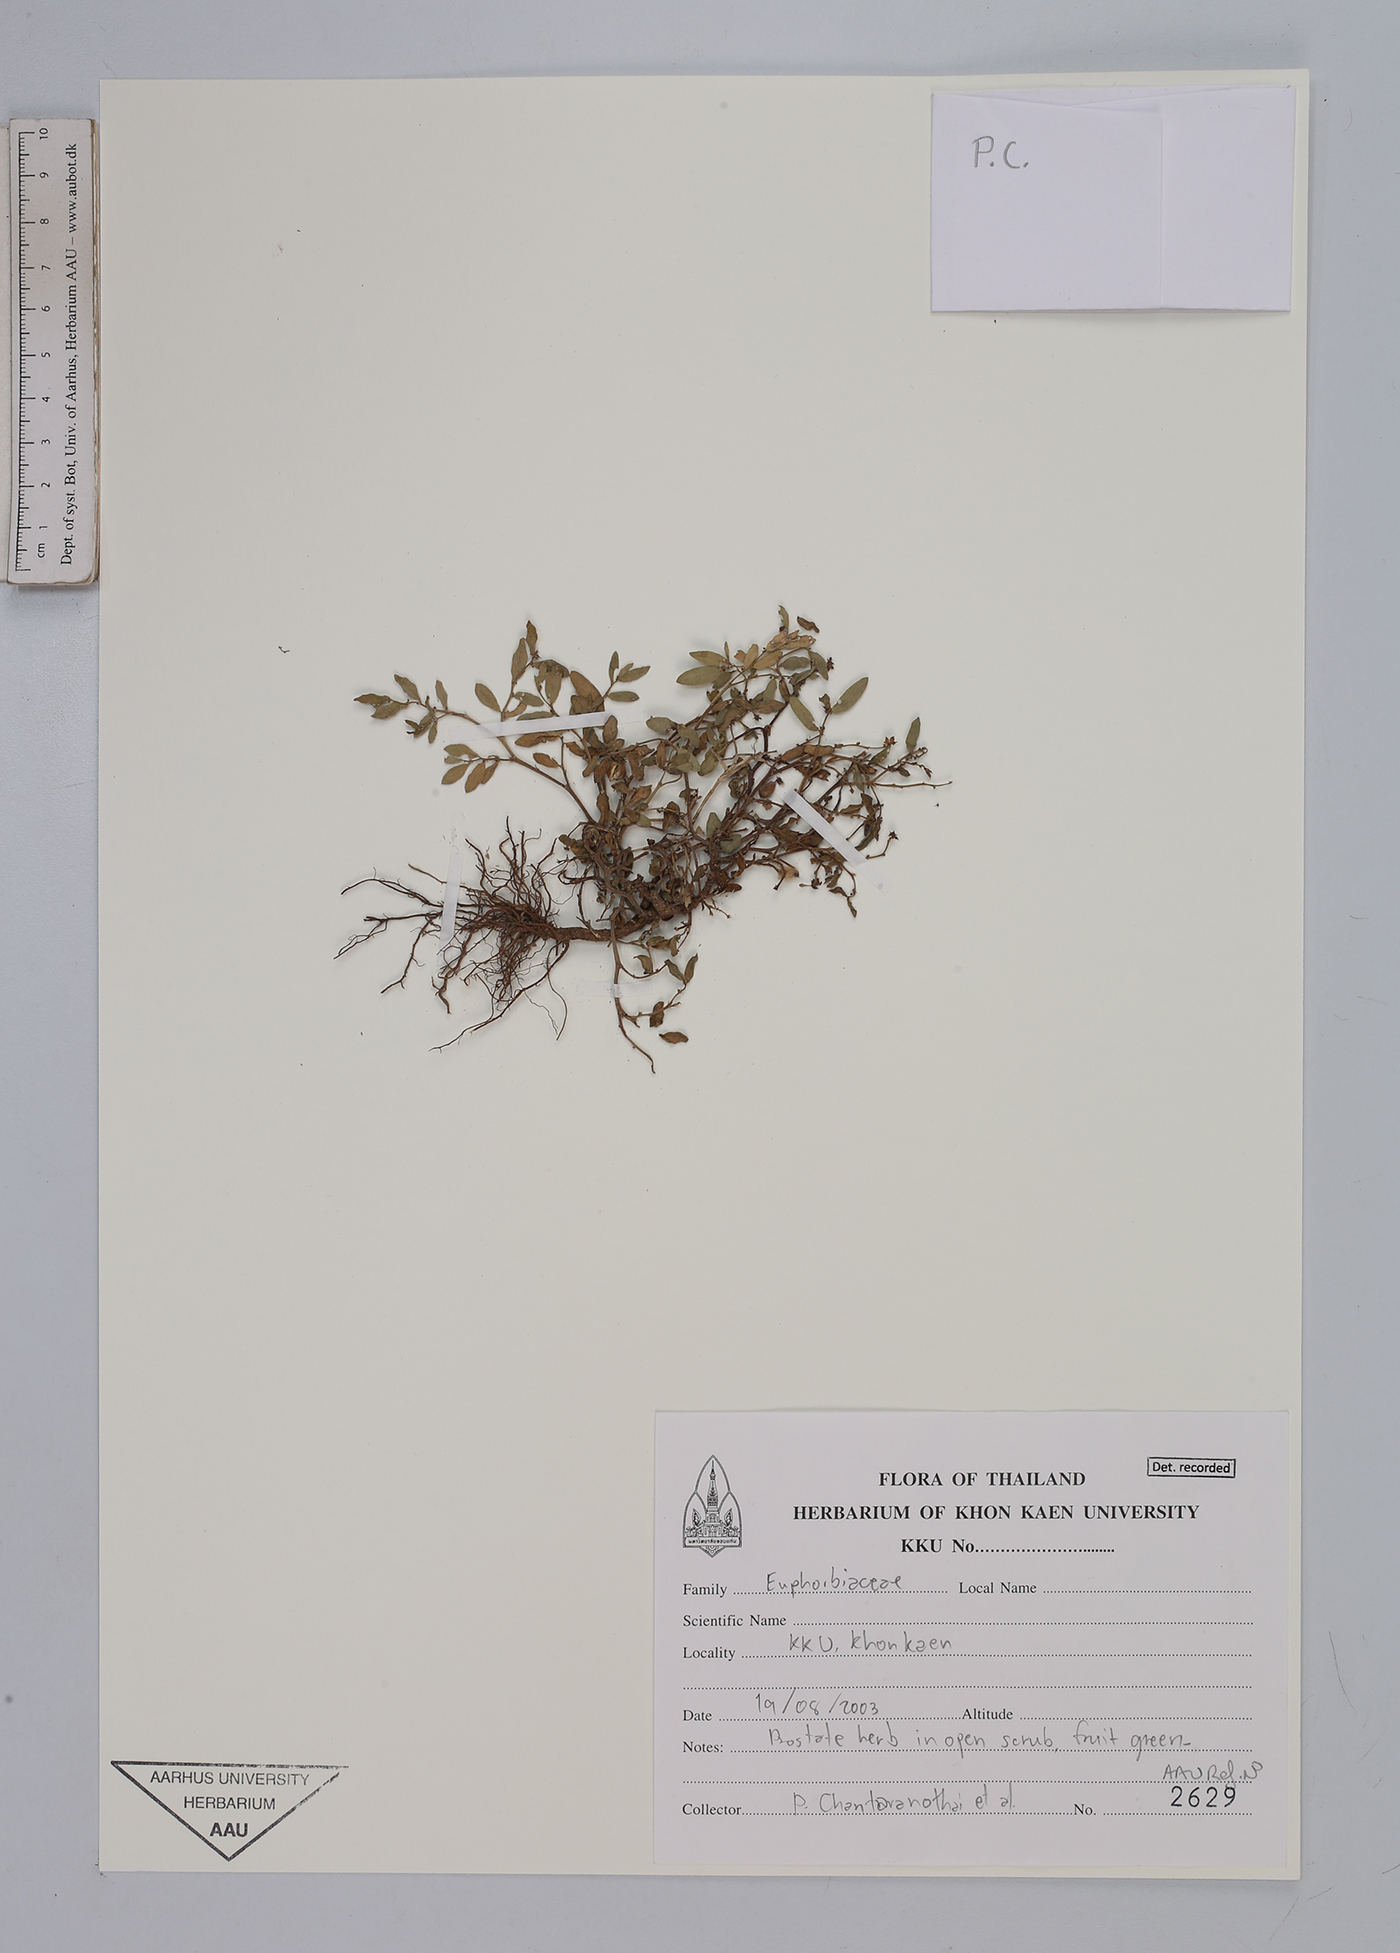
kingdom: Plantae
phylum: Tracheophyta
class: Magnoliopsida
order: Malpighiales
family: Euphorbiaceae
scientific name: Euphorbiaceae
